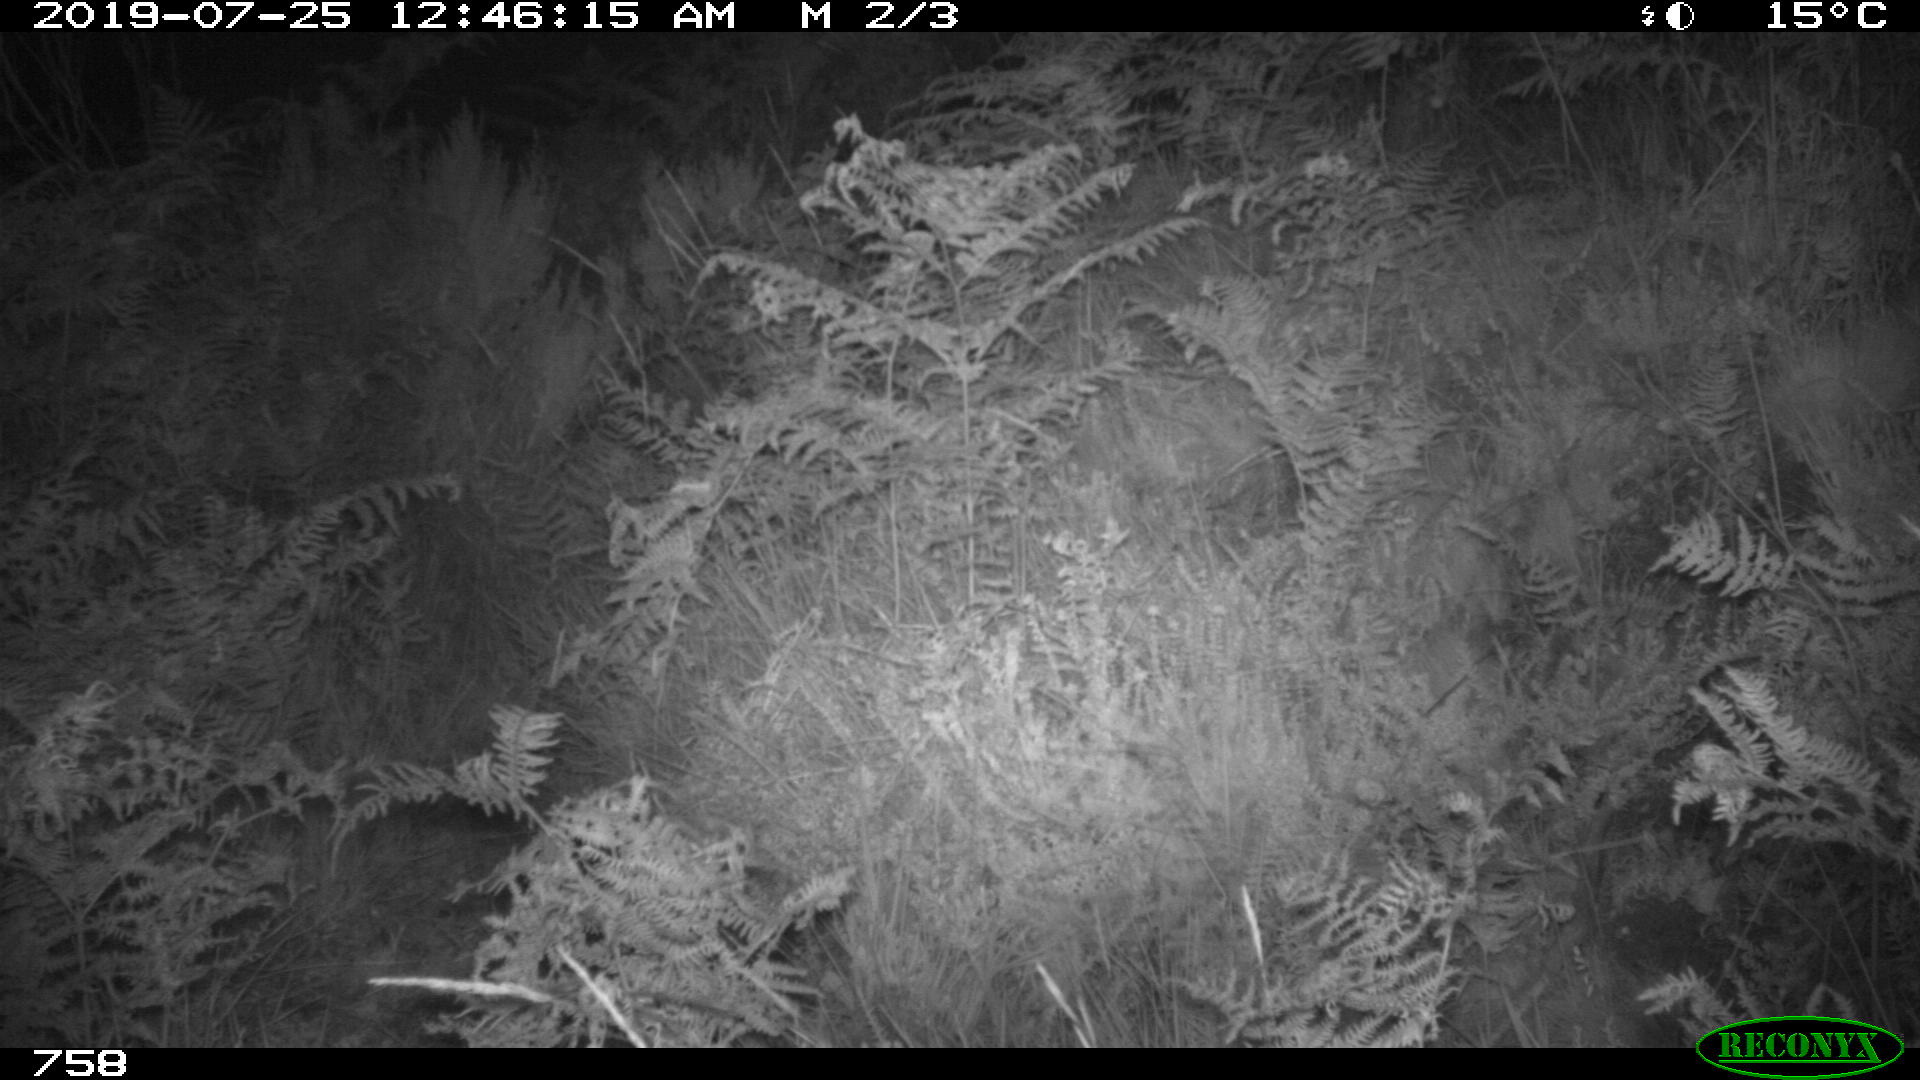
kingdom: Animalia
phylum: Chordata
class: Mammalia
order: Perissodactyla
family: Equidae
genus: Equus
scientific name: Equus caballus
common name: Horse
